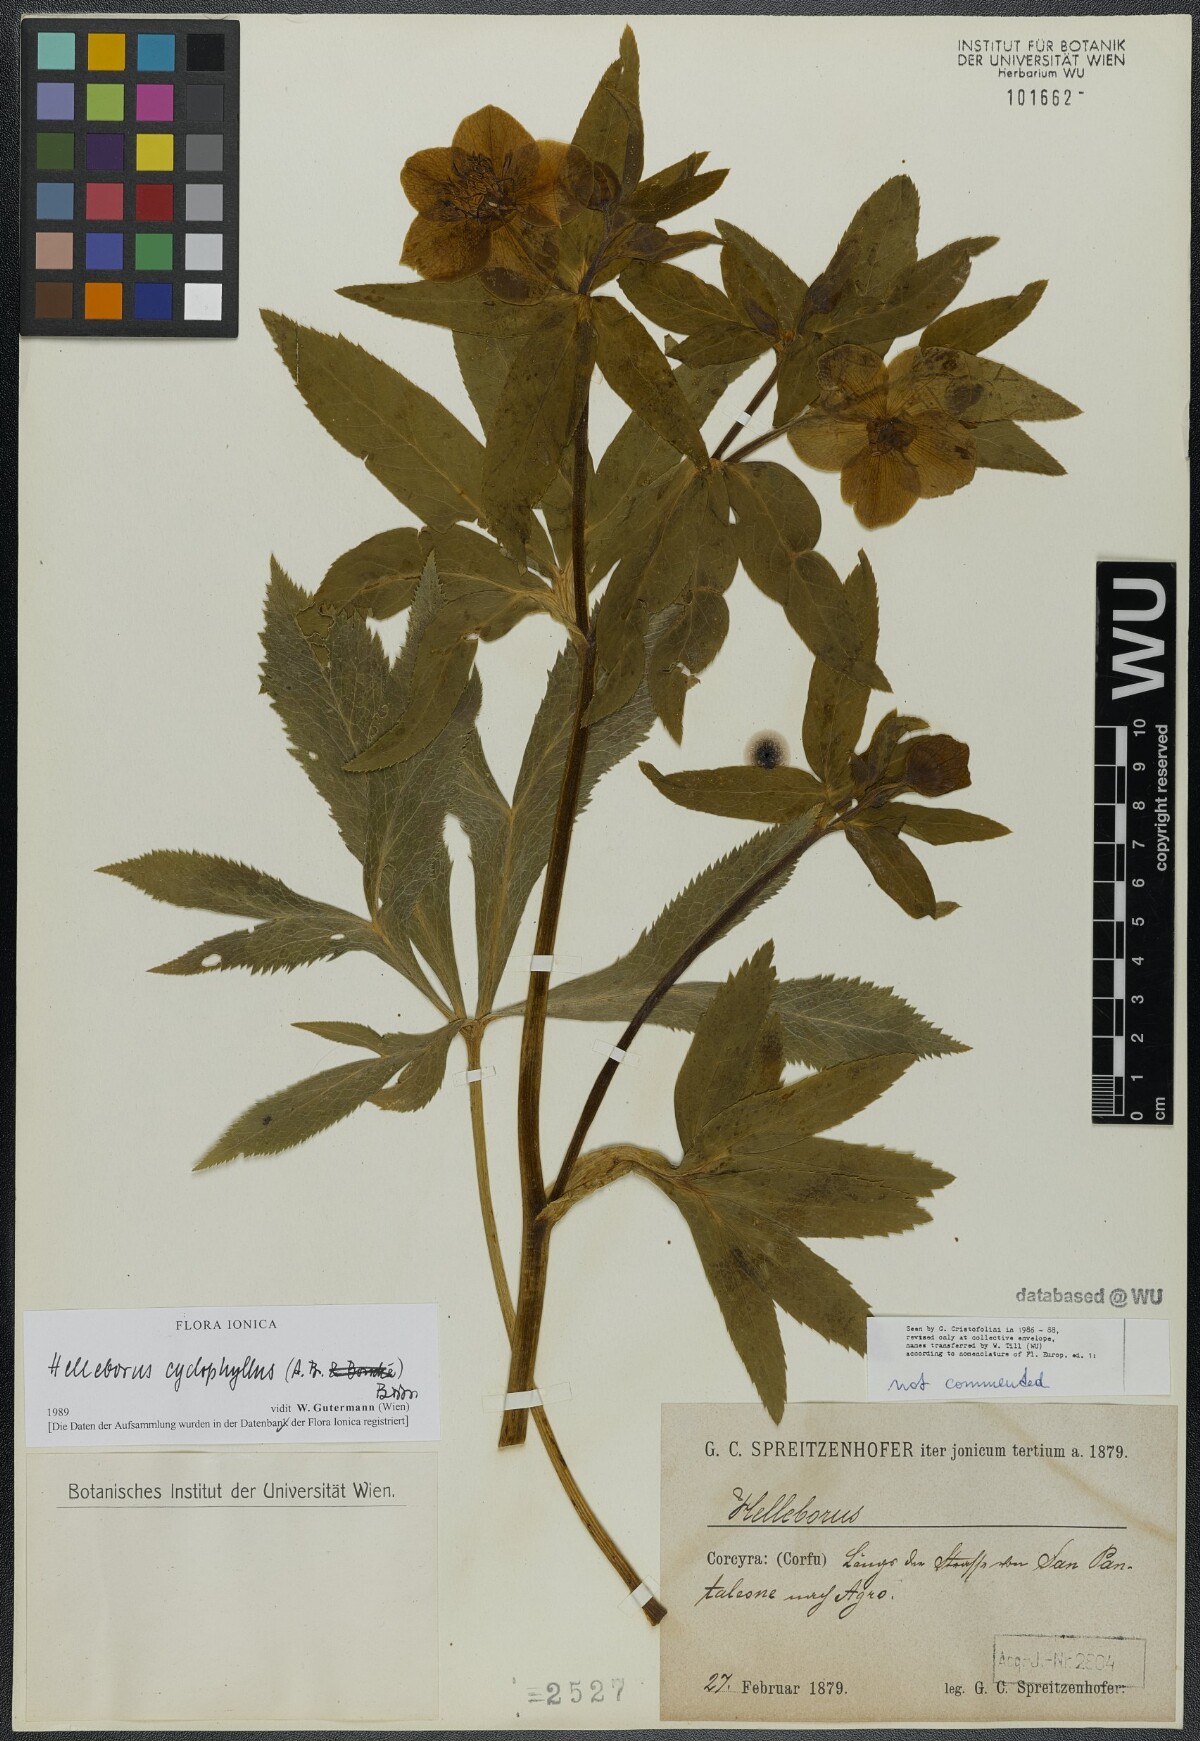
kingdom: Plantae
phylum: Tracheophyta
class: Magnoliopsida
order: Ranunculales
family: Ranunculaceae
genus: Helleborus
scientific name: Helleborus odorus
